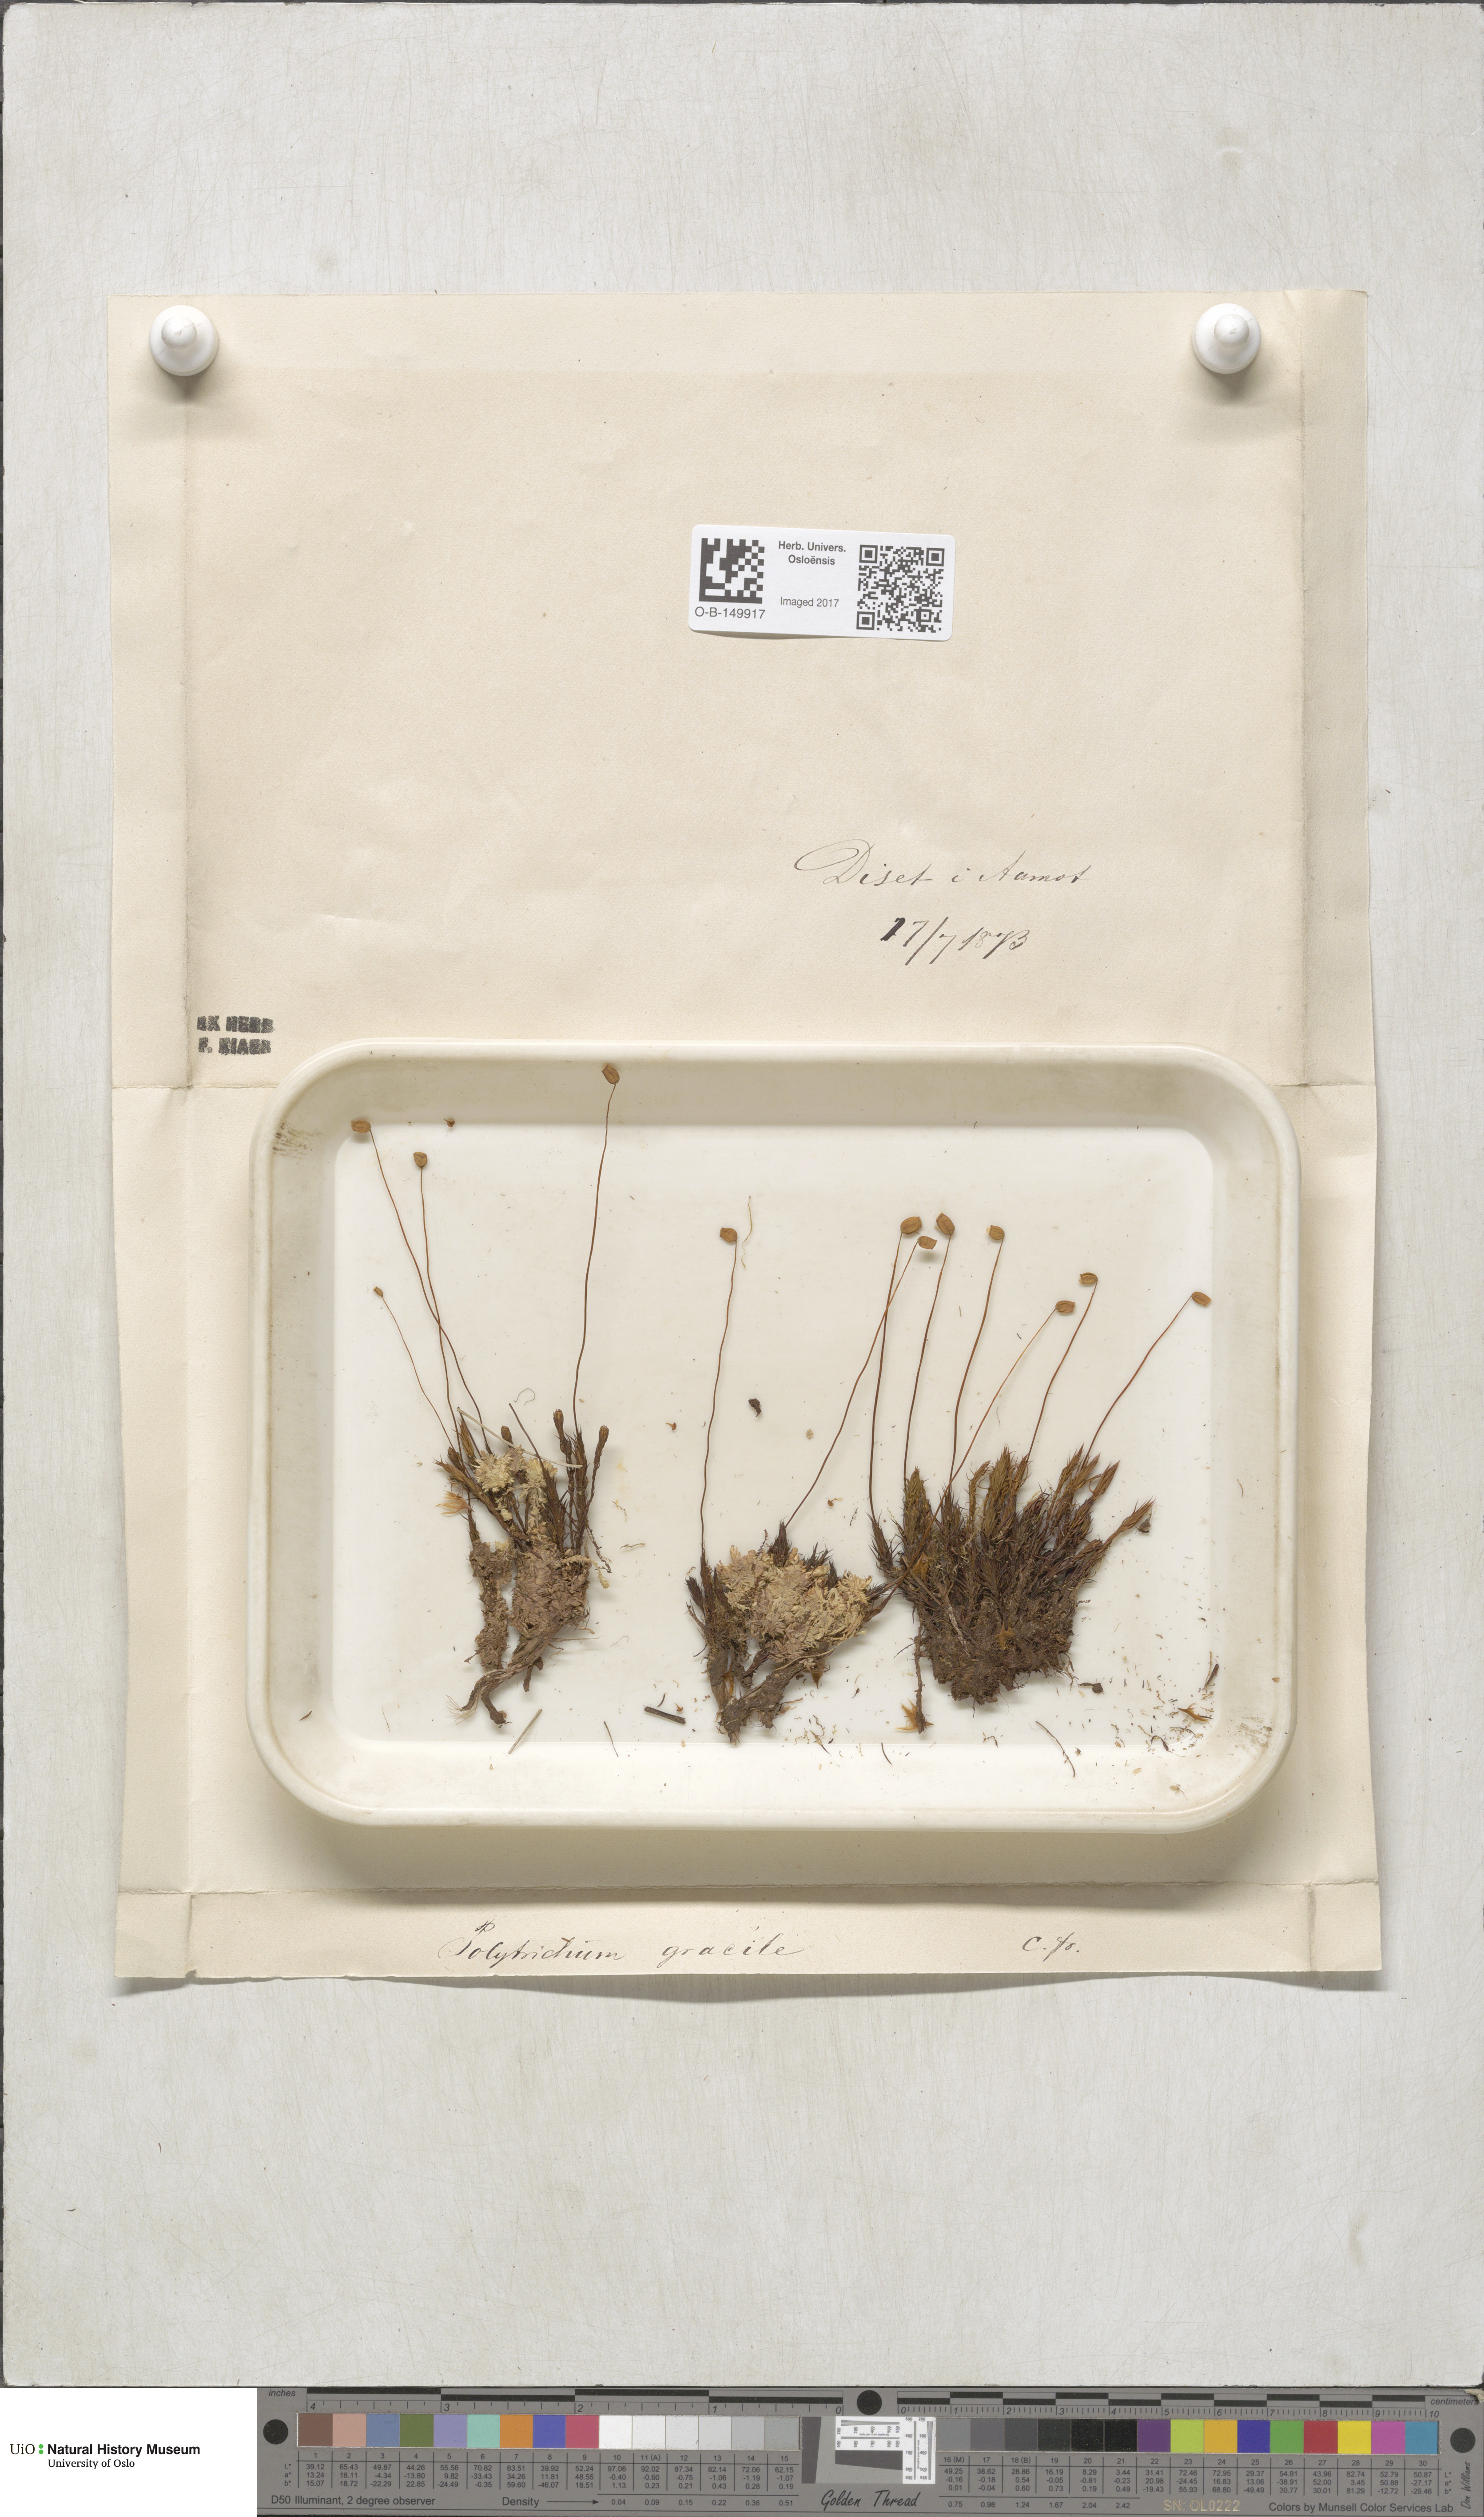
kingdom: Plantae
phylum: Bryophyta
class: Polytrichopsida
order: Polytrichales
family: Polytrichaceae
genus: Polytrichum
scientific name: Polytrichum longisetum
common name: Long-stalked haircap moss
